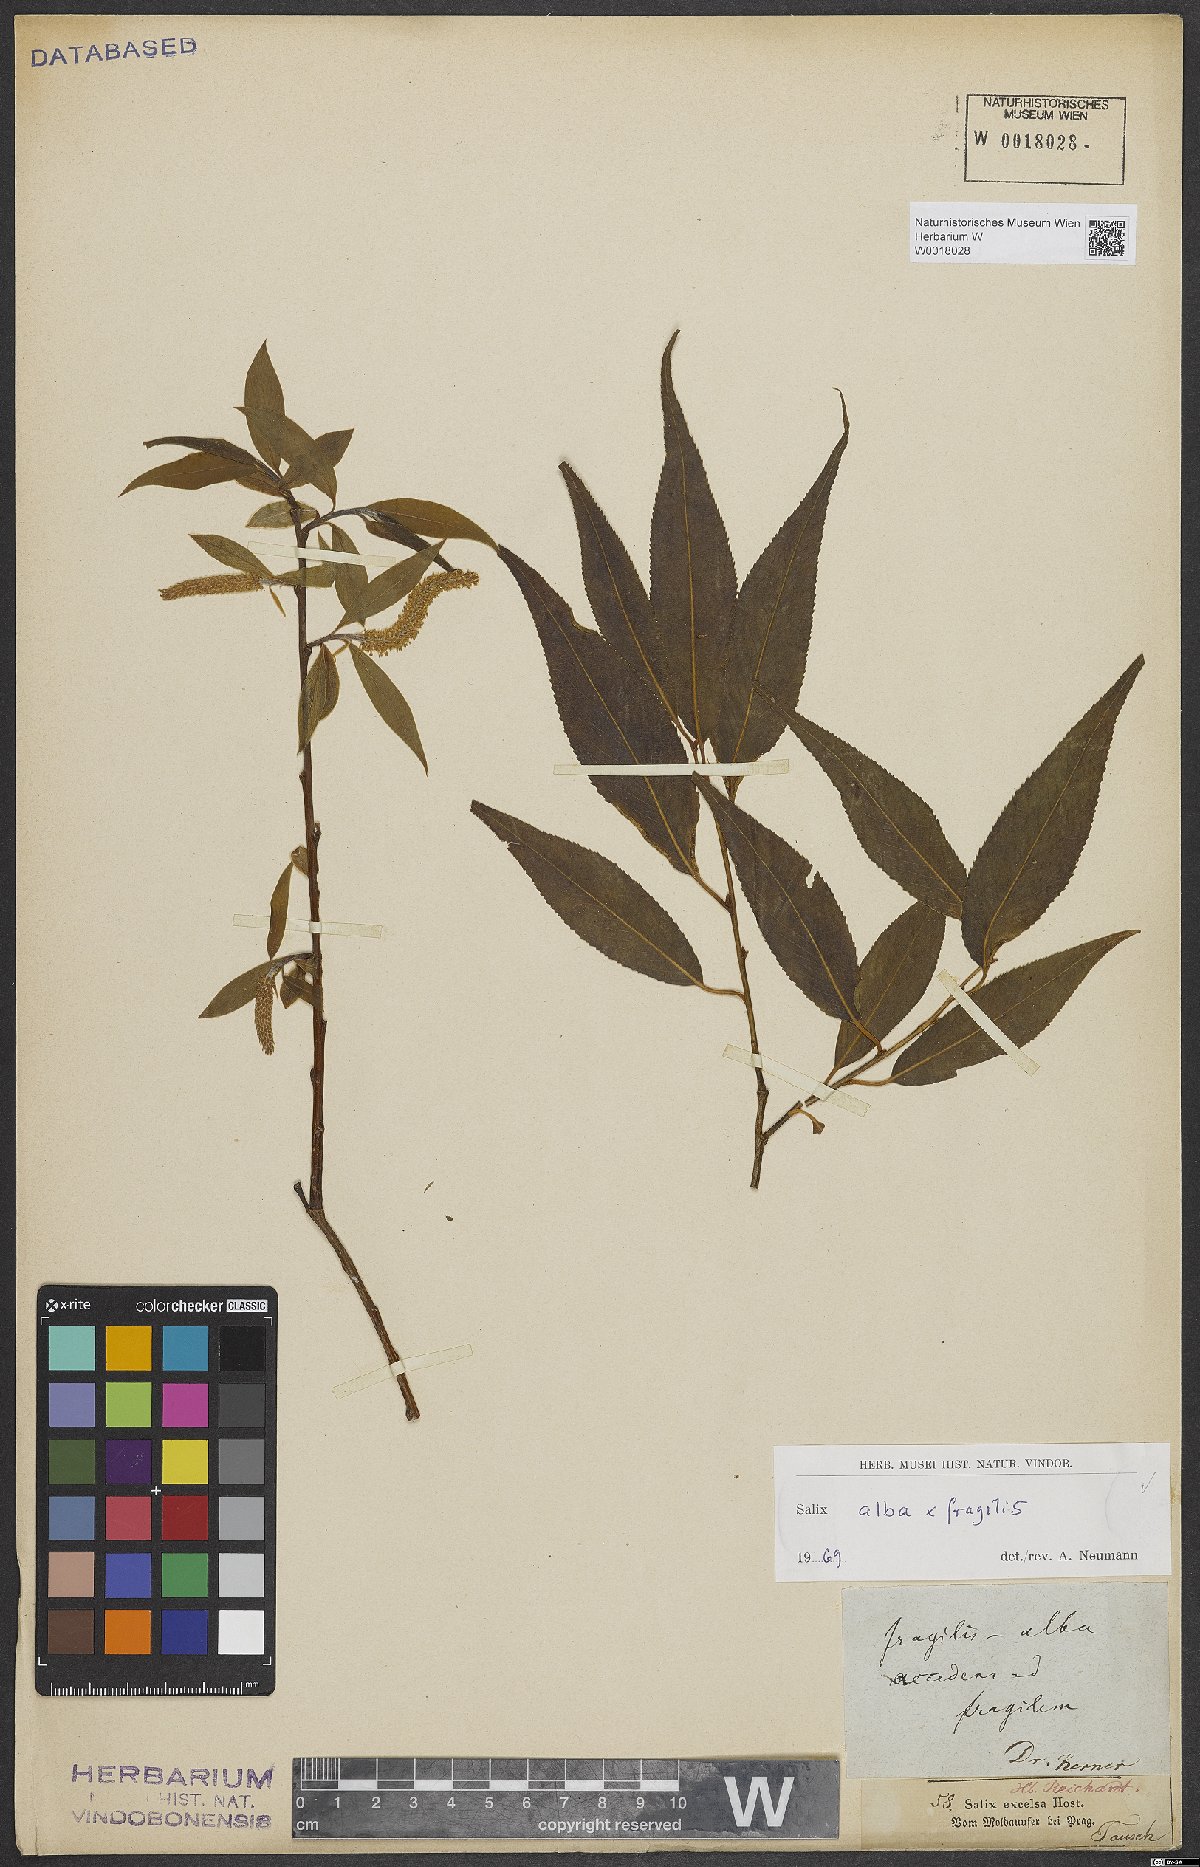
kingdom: Plantae
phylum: Tracheophyta
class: Magnoliopsida
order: Malpighiales
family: Salicaceae
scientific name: Salicaceae
